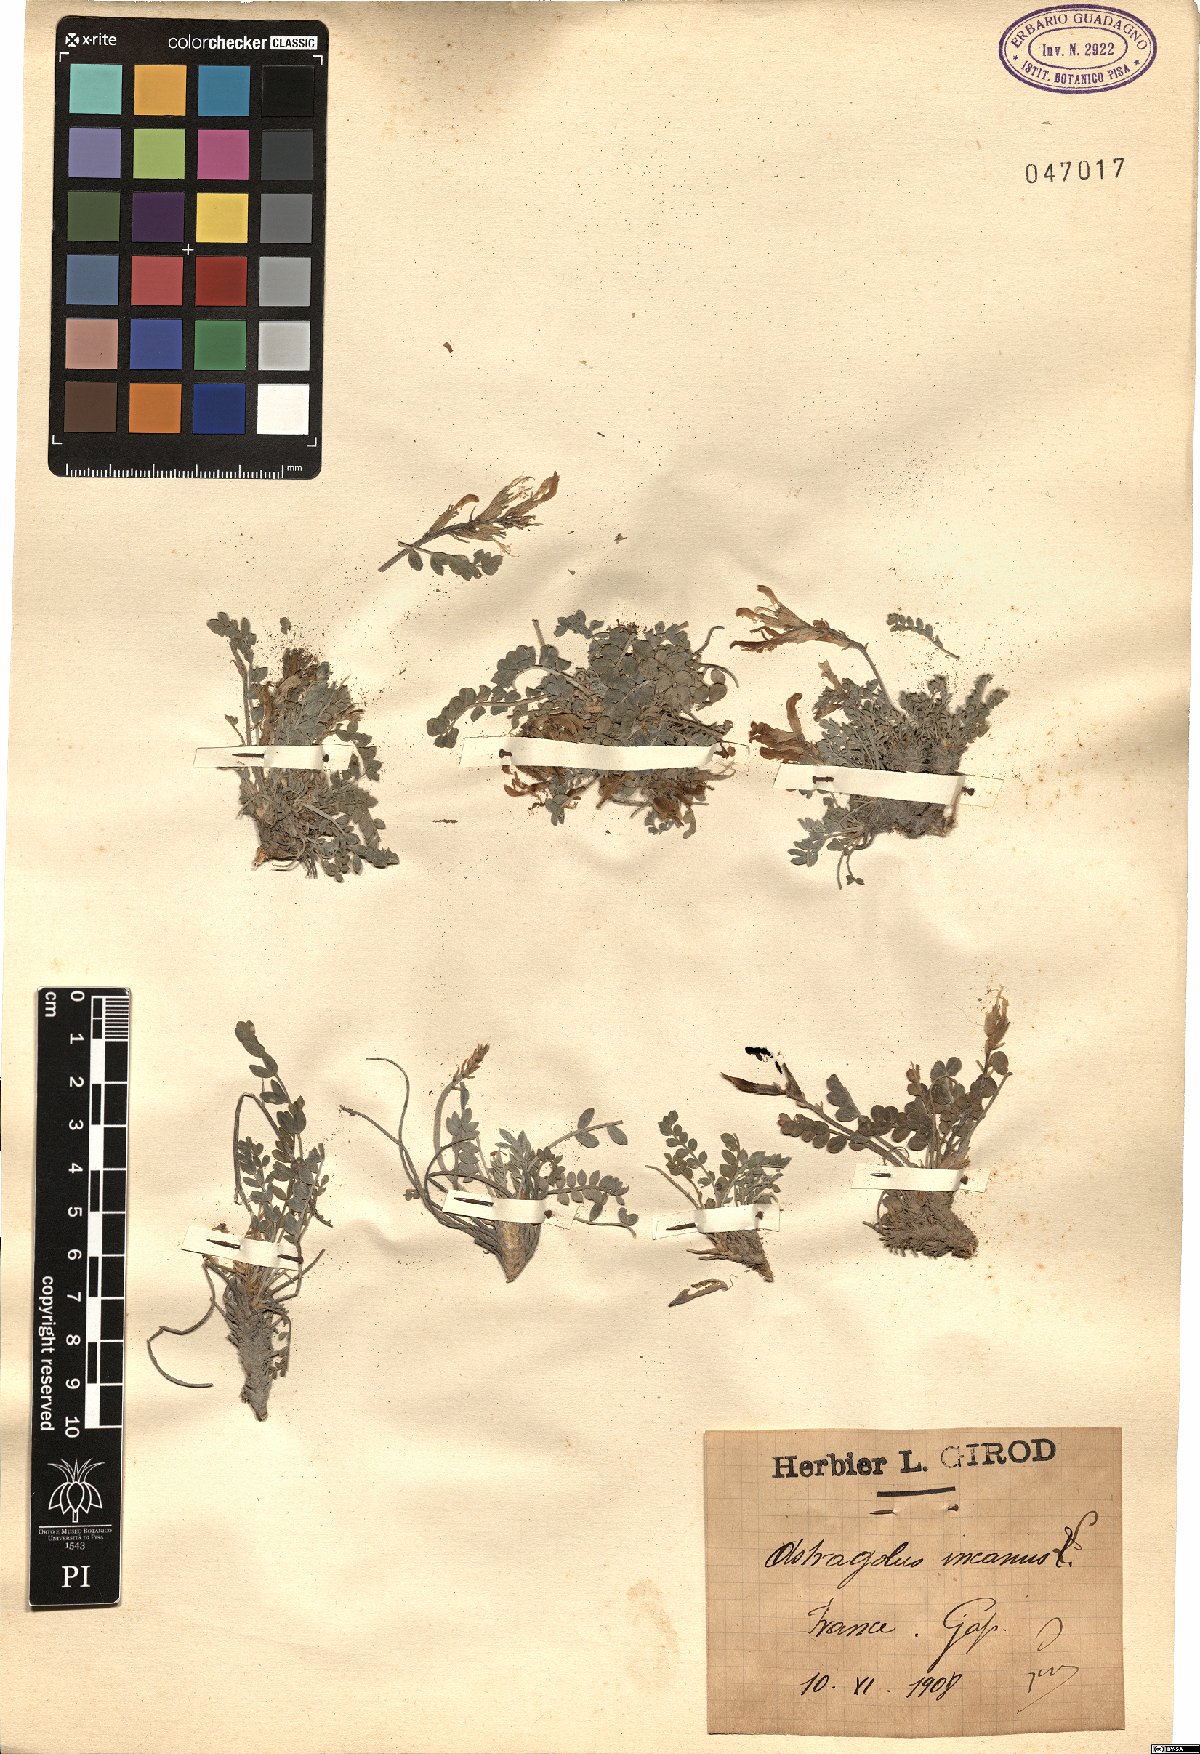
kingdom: Plantae
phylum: Tracheophyta
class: Magnoliopsida
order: Fabales
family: Fabaceae
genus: Astragalus
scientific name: Astragalus incanus
